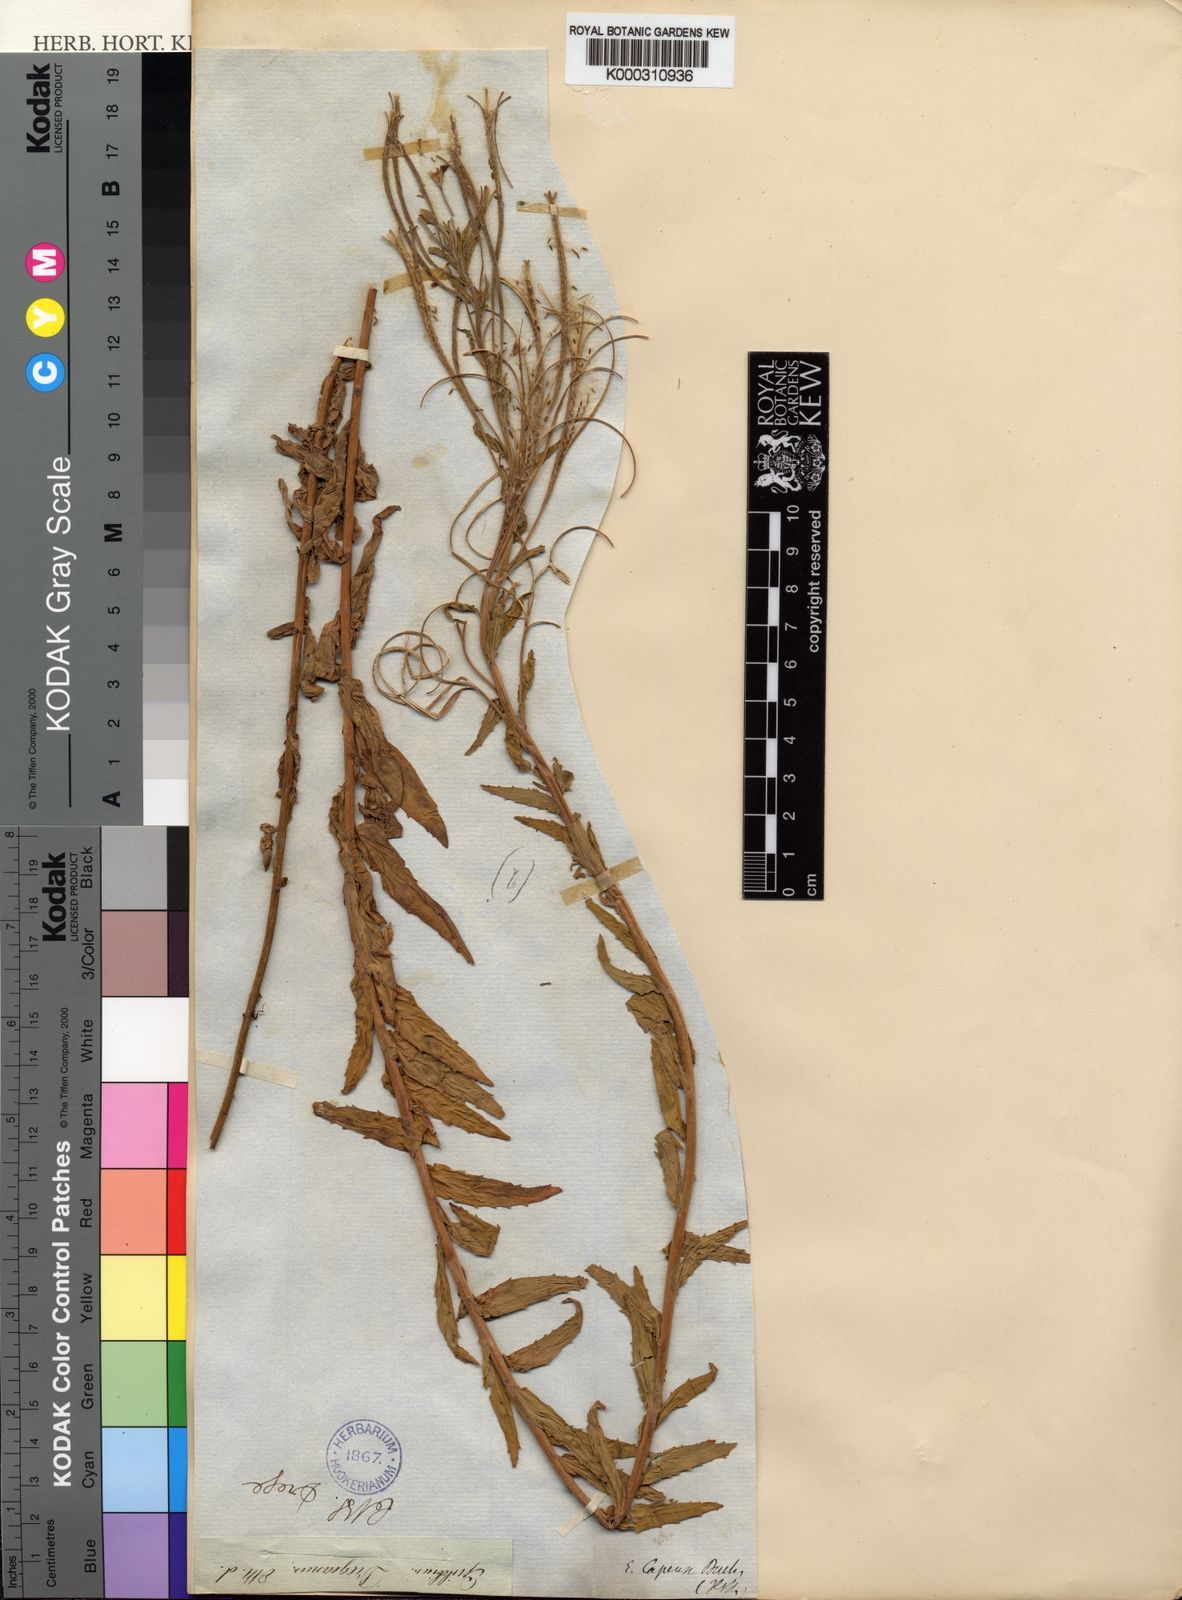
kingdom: Plantae
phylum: Tracheophyta
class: Magnoliopsida
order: Myrtales
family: Onagraceae
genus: Epilobium
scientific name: Epilobium
